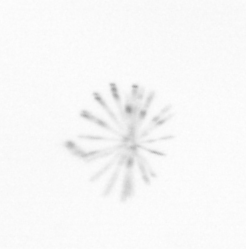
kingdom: Chromista
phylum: Ochrophyta
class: Bacillariophyceae
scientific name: Bacillariophyceae
